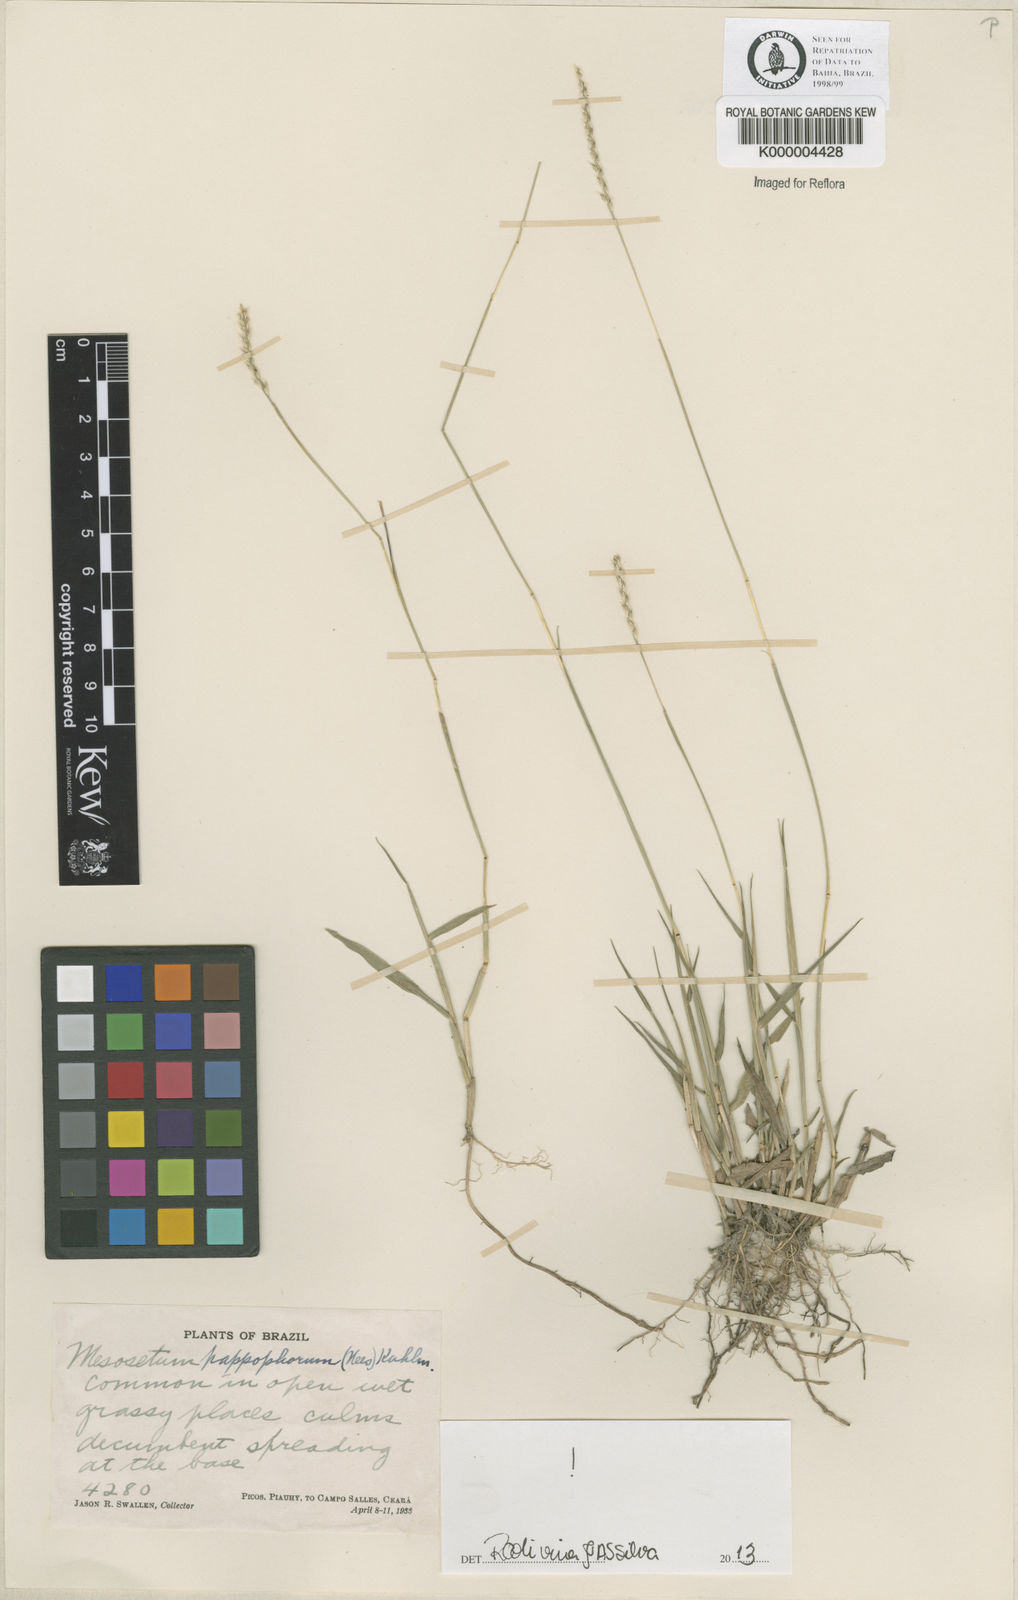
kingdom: Plantae
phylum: Tracheophyta
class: Liliopsida
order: Poales
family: Poaceae
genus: Mesosetum
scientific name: Mesosetum pappophorum
